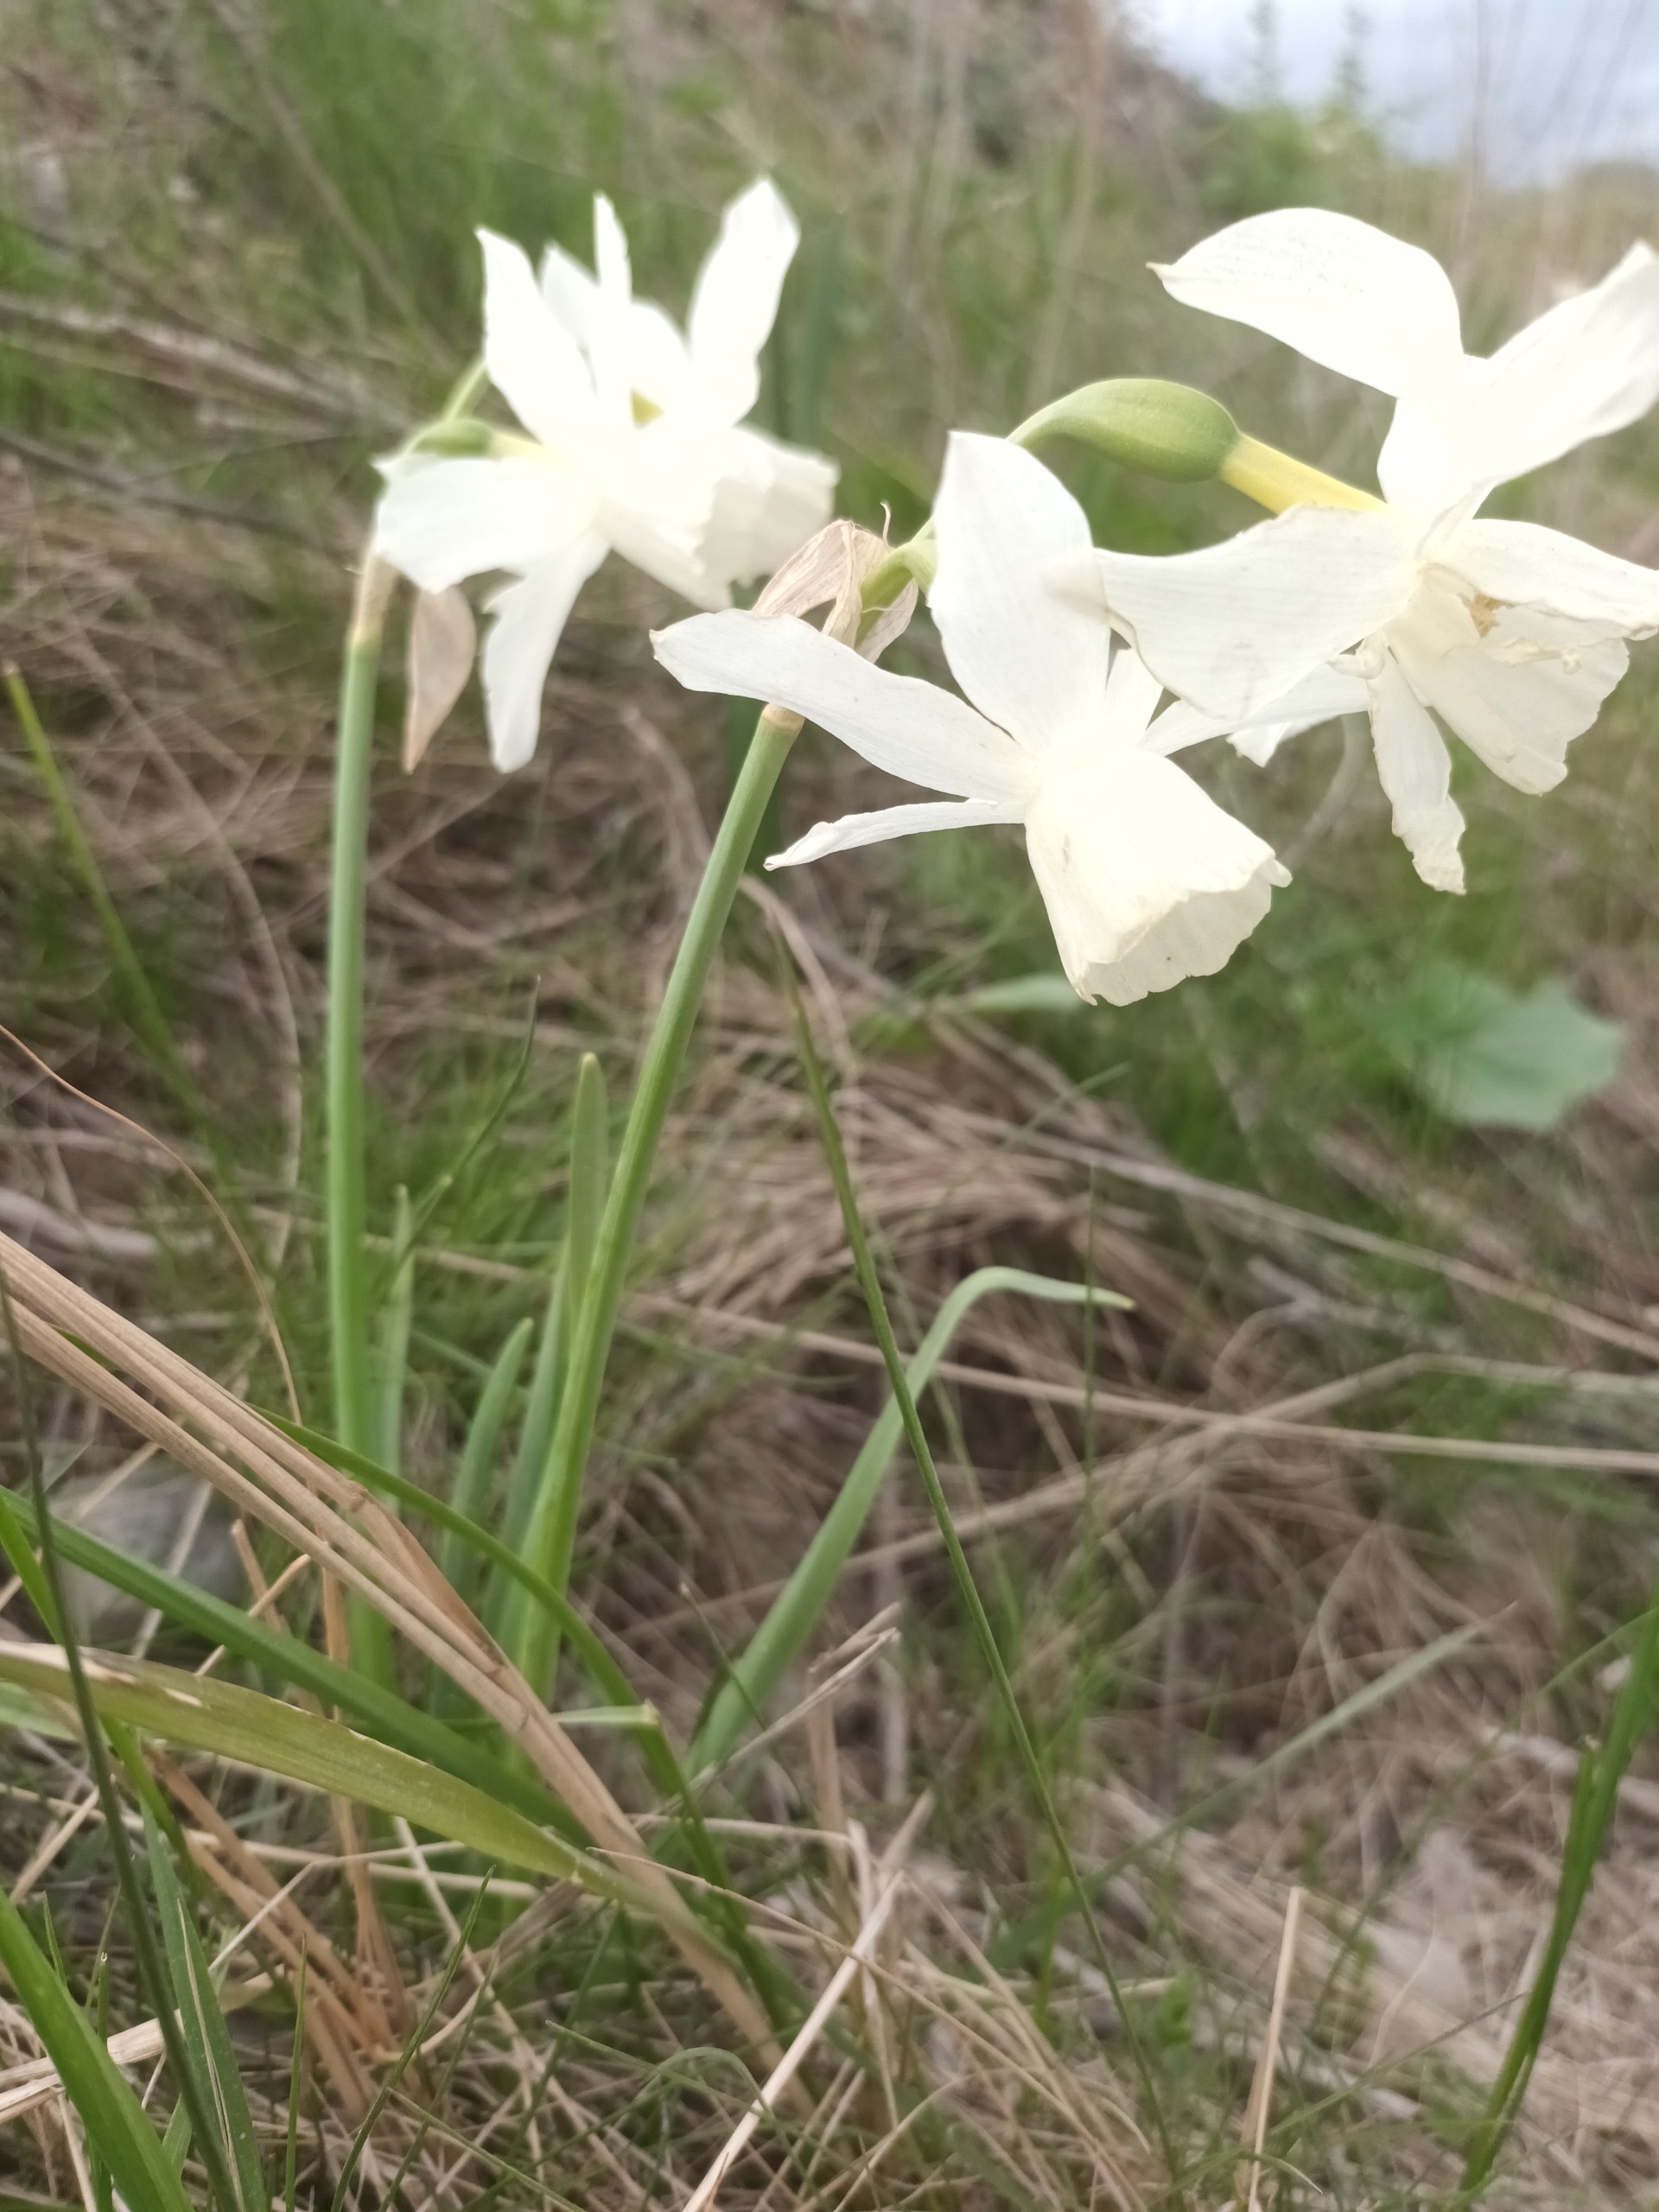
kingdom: Plantae
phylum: Tracheophyta
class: Liliopsida
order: Asparagales
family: Amaryllidaceae
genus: Narcissus
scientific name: Narcissus triandrus
